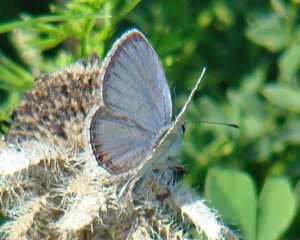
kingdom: Animalia
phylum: Arthropoda
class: Insecta
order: Lepidoptera
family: Lycaenidae
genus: Elkalyce
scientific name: Elkalyce comyntas
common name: Eastern Tailed-Blue
